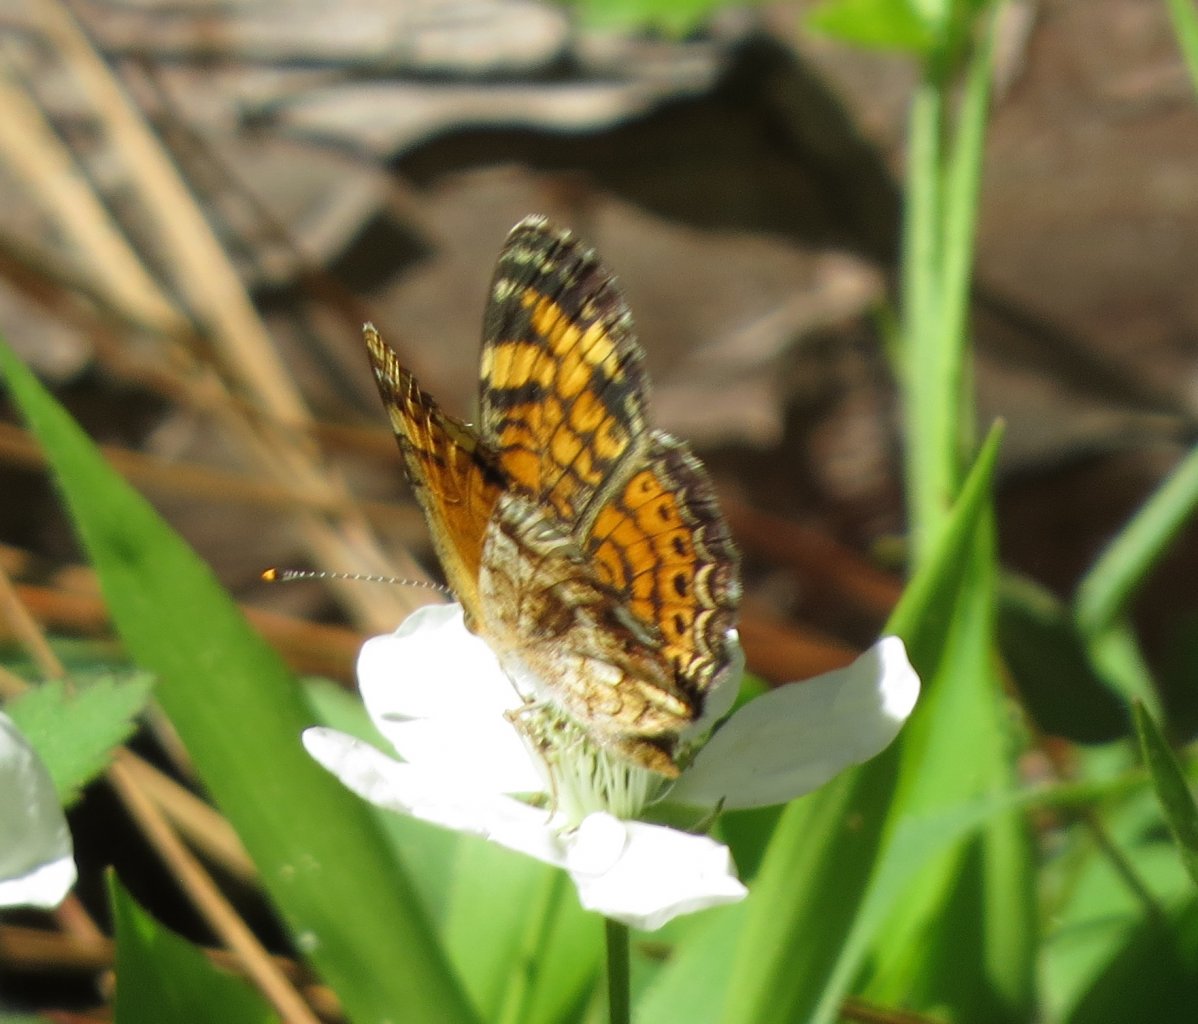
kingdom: Animalia
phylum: Arthropoda
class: Insecta
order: Lepidoptera
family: Nymphalidae
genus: Phyciodes
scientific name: Phyciodes tharos
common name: Pearl Crescent
